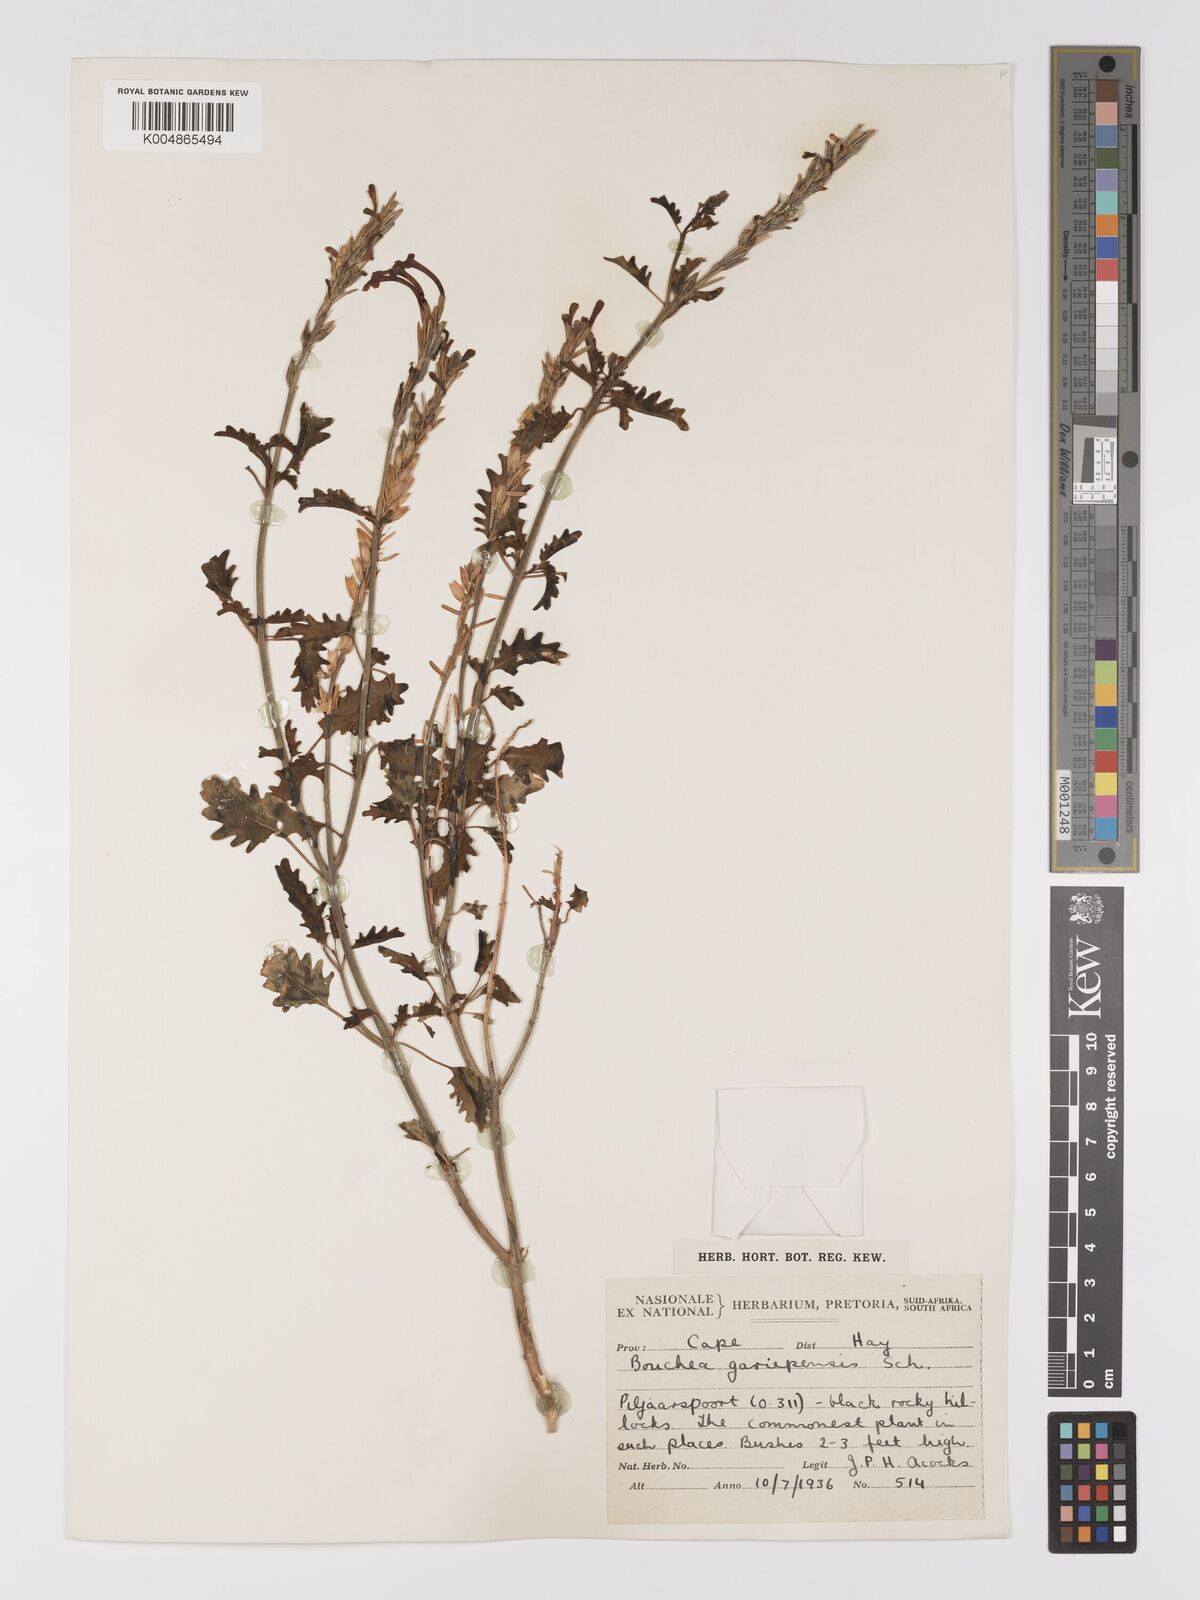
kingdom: Plantae
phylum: Tracheophyta
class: Magnoliopsida
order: Lamiales
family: Verbenaceae
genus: Chascanum
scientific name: Chascanum garipense
